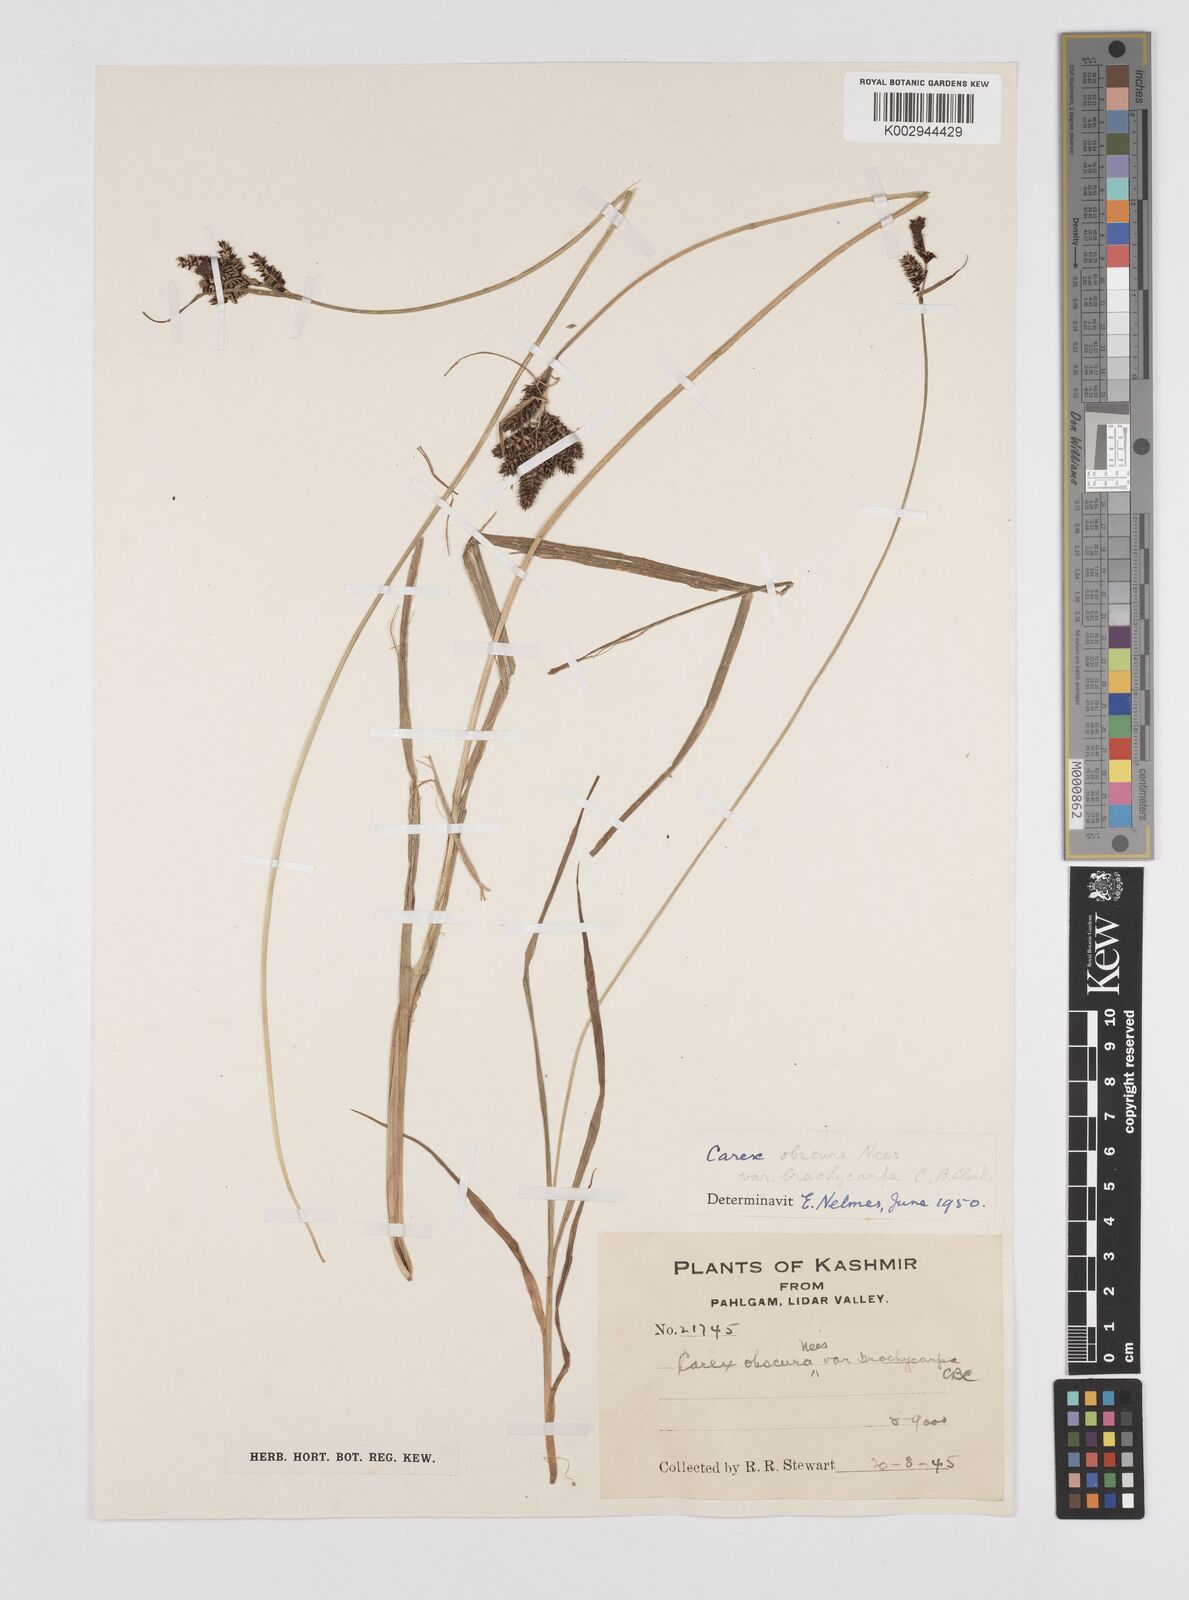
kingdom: Plantae
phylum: Tracheophyta
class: Liliopsida
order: Poales
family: Cyperaceae
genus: Carex
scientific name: Carex obscura
